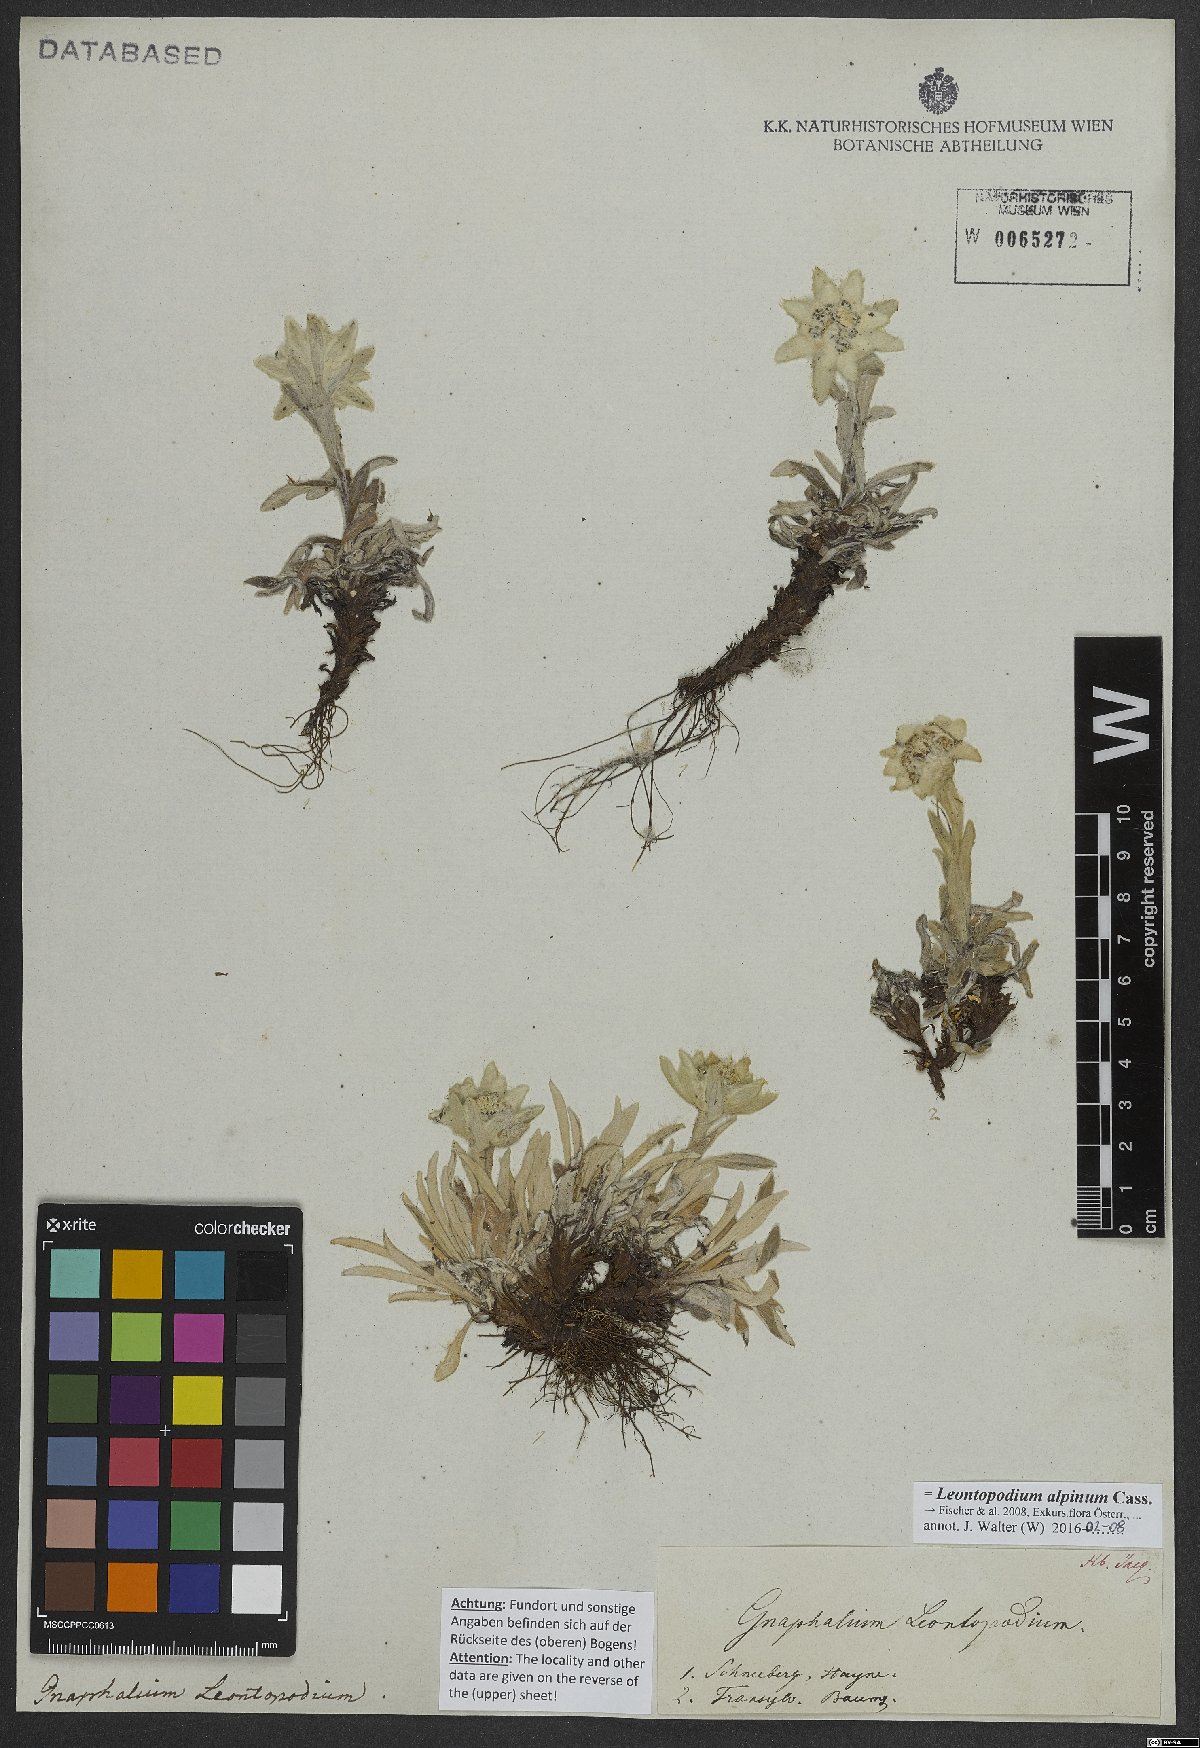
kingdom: Plantae
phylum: Tracheophyta
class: Magnoliopsida
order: Asterales
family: Asteraceae
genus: Leontopodium
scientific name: Leontopodium nivale
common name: Edelweiss
